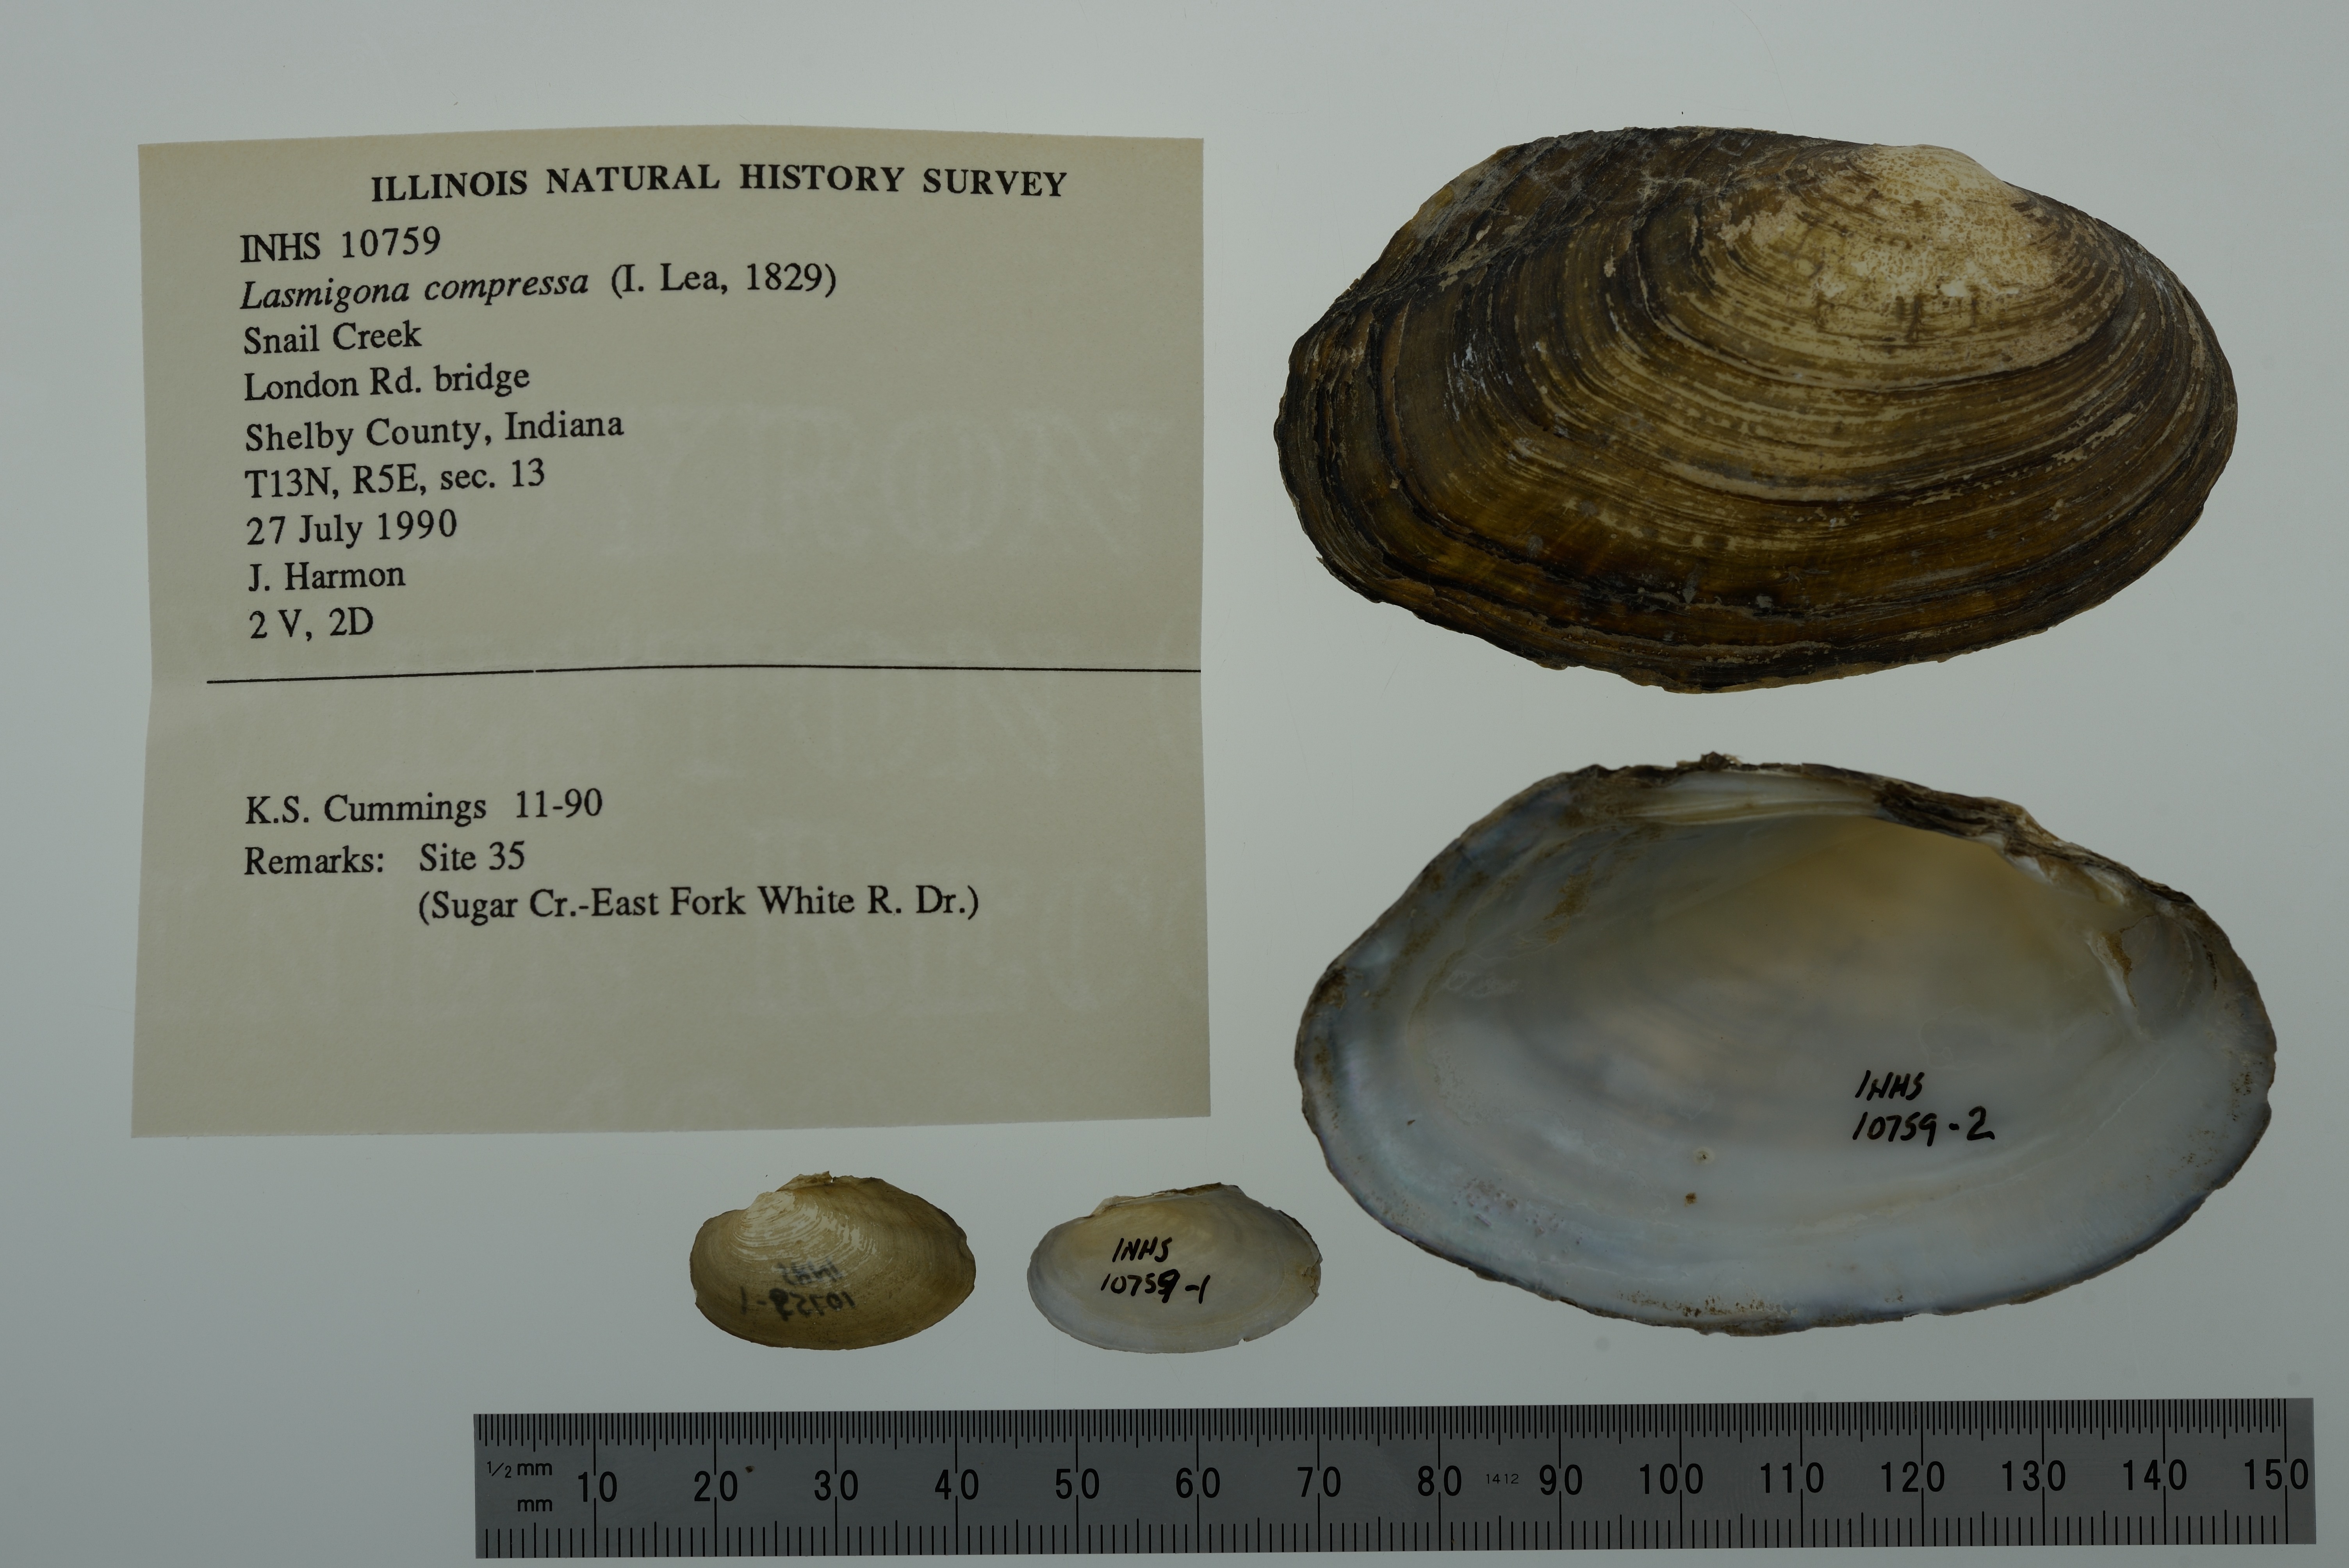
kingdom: Animalia
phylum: Mollusca
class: Bivalvia
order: Unionida
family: Unionidae
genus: Lasmigona
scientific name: Lasmigona compressa
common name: Creek heelsplitter
